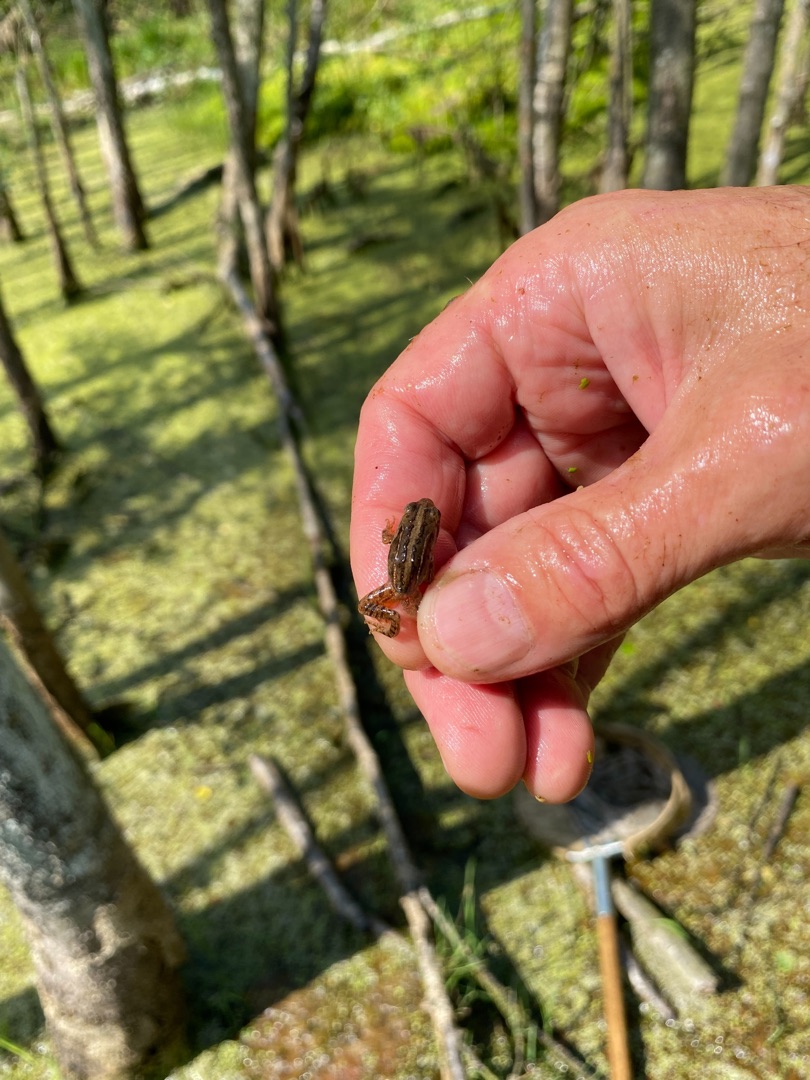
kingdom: Animalia
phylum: Chordata
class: Amphibia
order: Anura
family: Ranidae
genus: Rana
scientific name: Rana arvalis
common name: Spidssnudet frø
